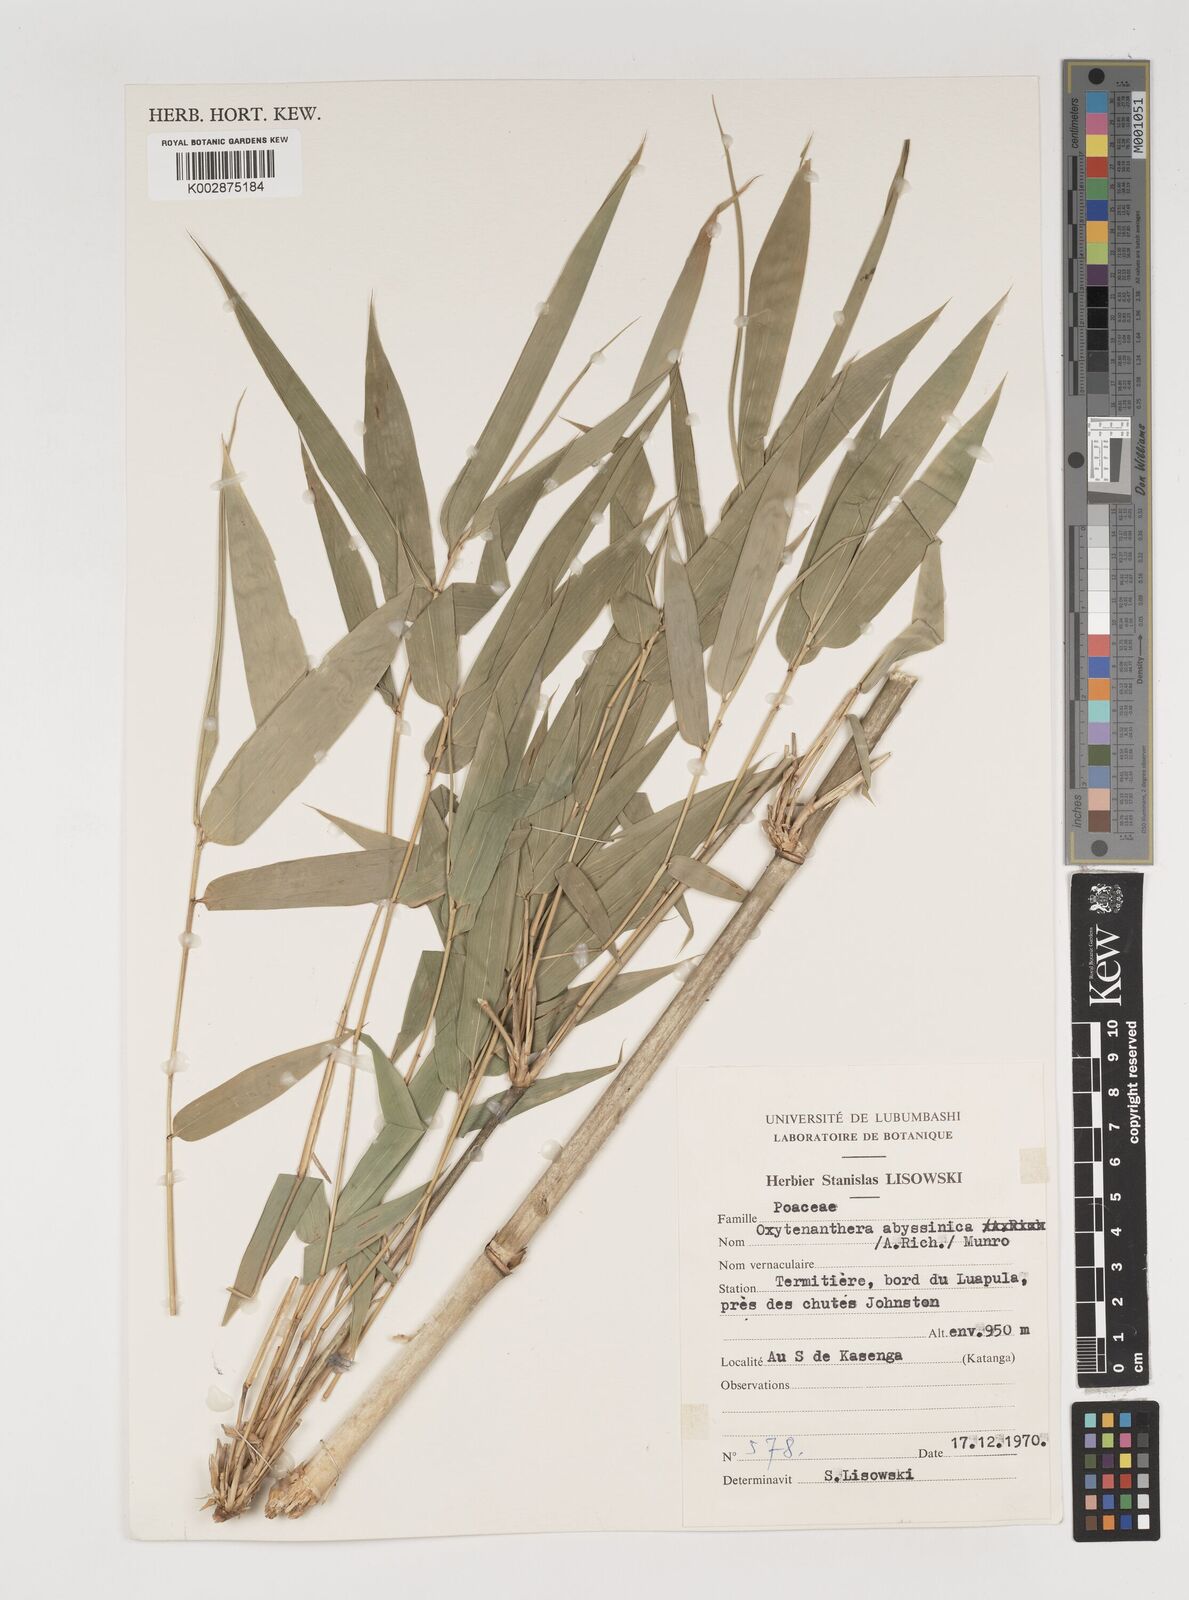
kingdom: Plantae
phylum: Tracheophyta
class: Liliopsida
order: Poales
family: Poaceae
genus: Oxytenanthera
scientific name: Oxytenanthera abyssinica
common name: Wine bamboo
